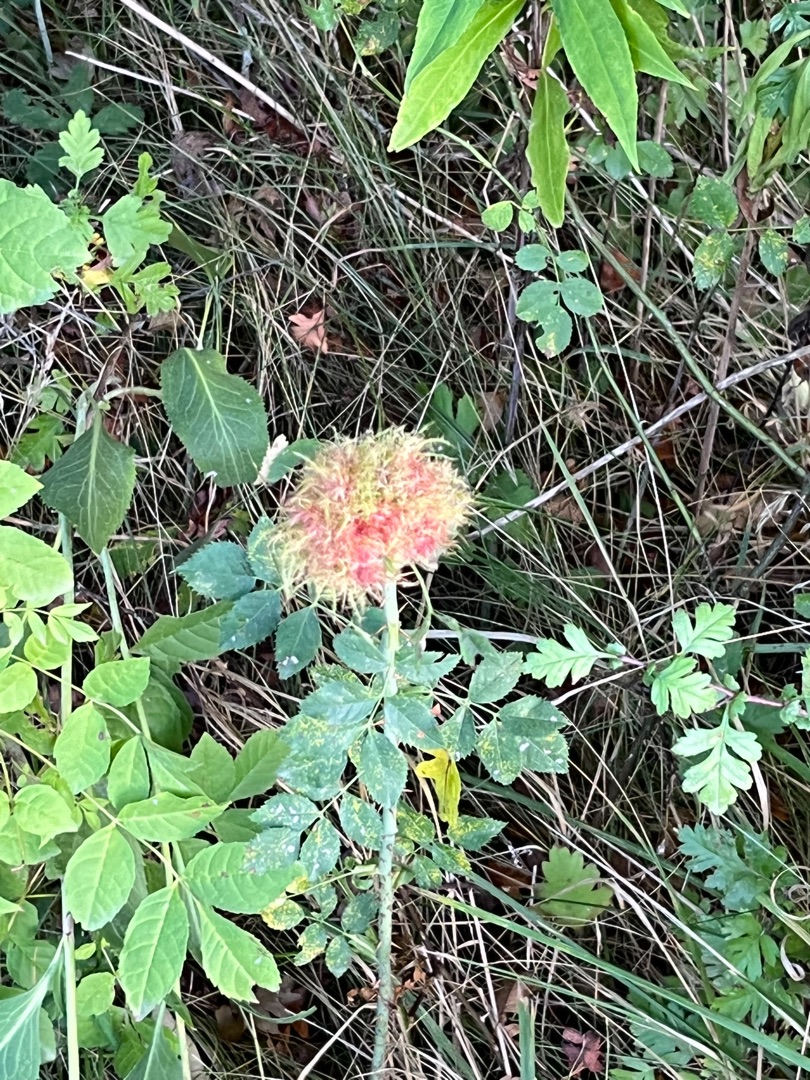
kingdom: Animalia
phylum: Arthropoda
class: Insecta
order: Hymenoptera
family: Cynipidae
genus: Diplolepis
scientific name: Diplolepis rosae
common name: Bedeguargalhveps
